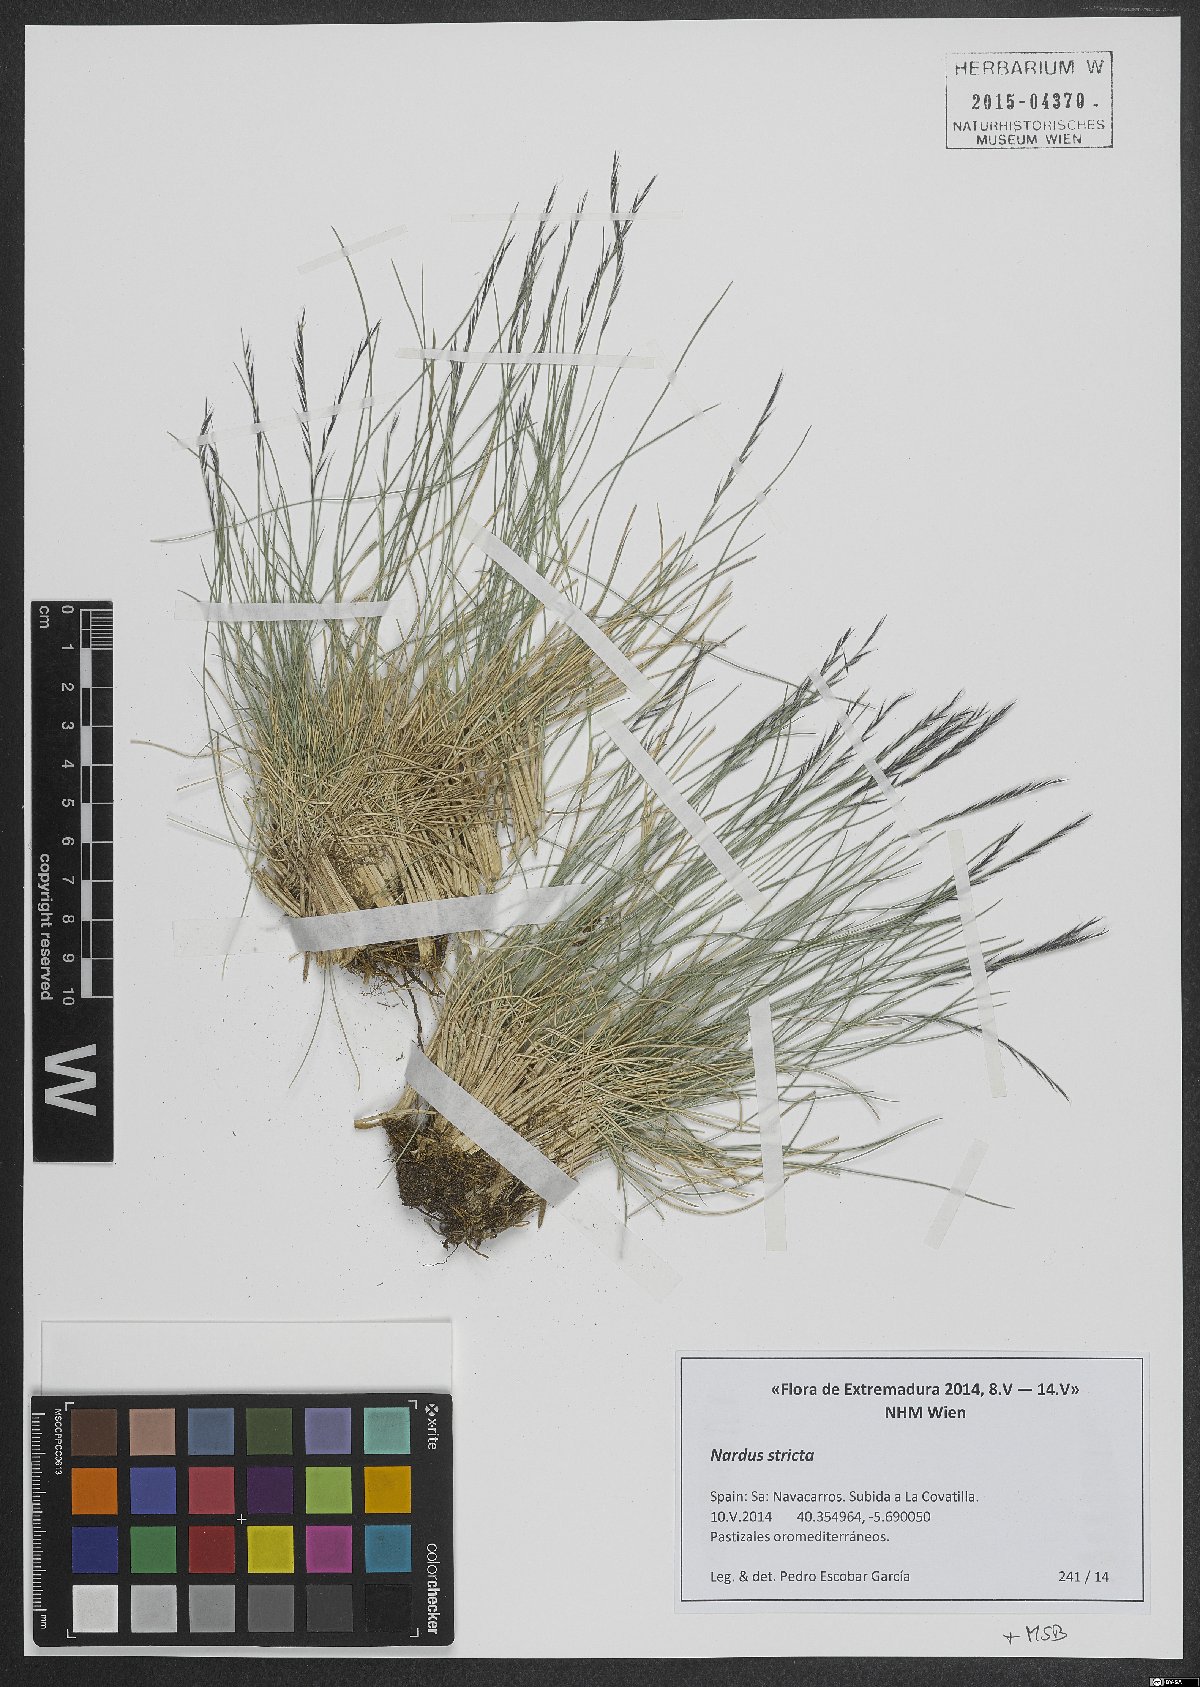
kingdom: Plantae
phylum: Tracheophyta
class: Liliopsida
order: Poales
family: Poaceae
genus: Nardus
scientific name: Nardus stricta
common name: Mat-grass
